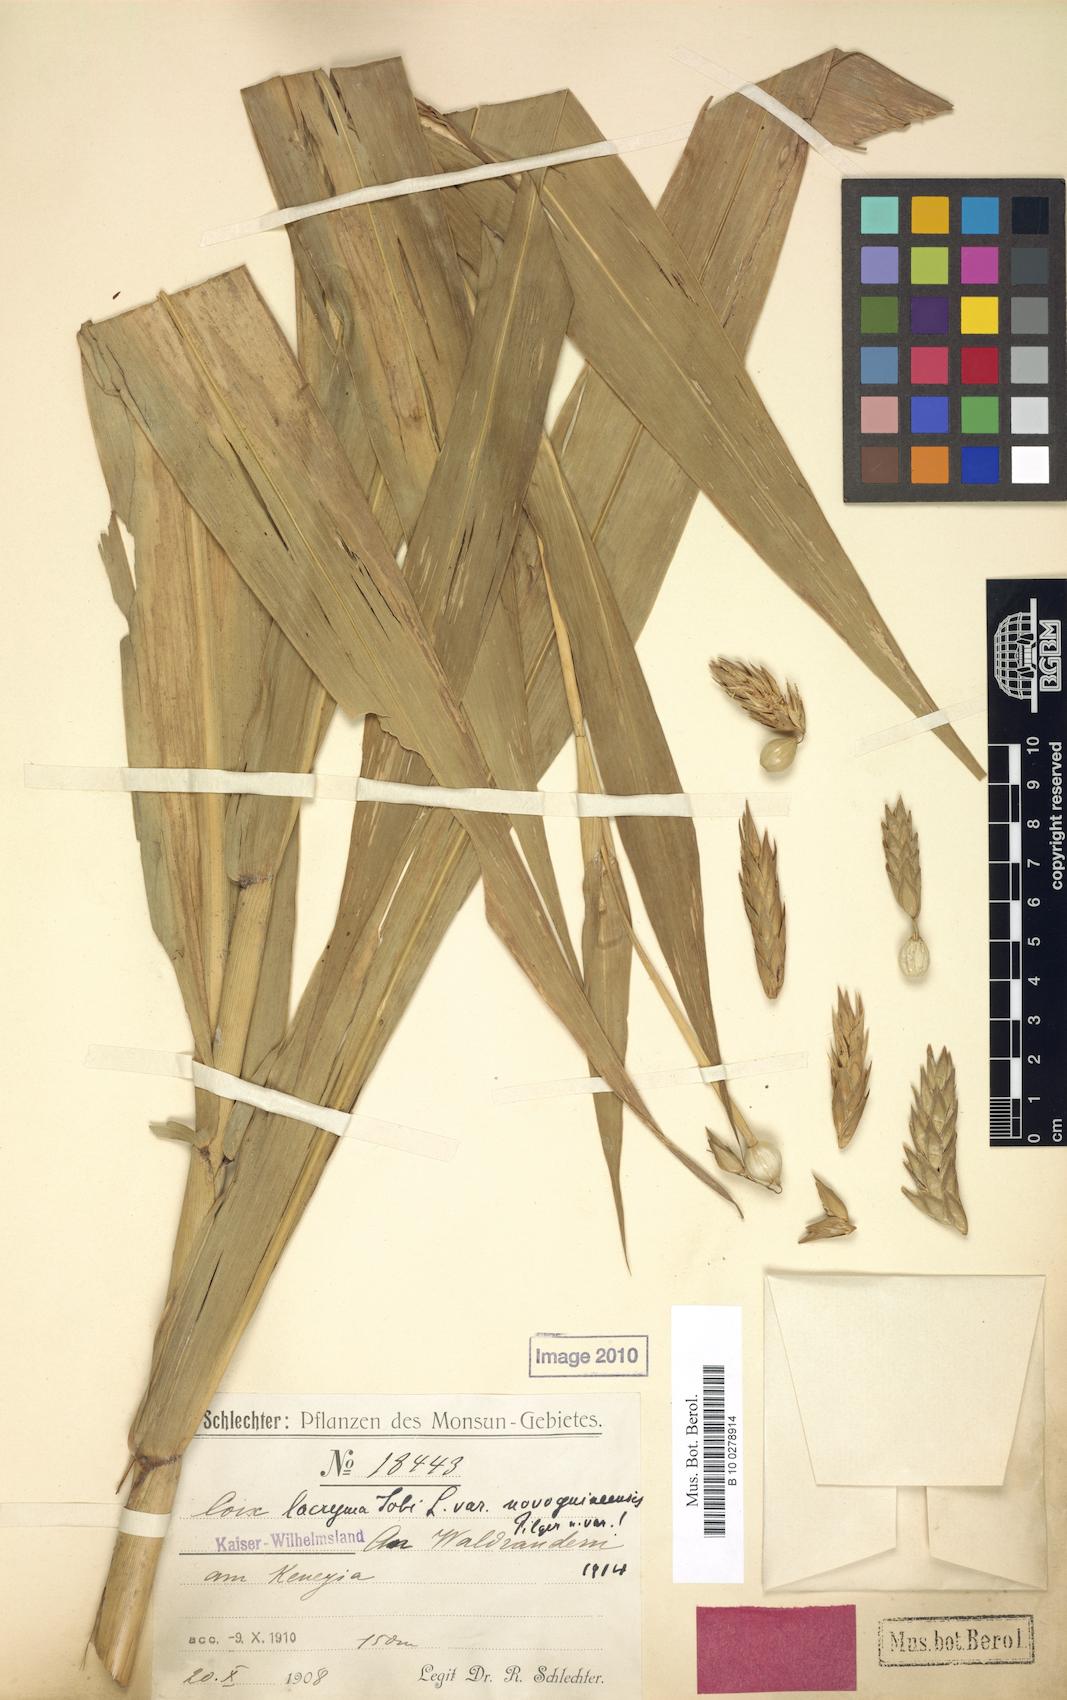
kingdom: Plantae
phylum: Tracheophyta
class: Liliopsida
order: Poales
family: Poaceae
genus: Coix
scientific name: Coix lacryma-jobi
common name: Job's tears
